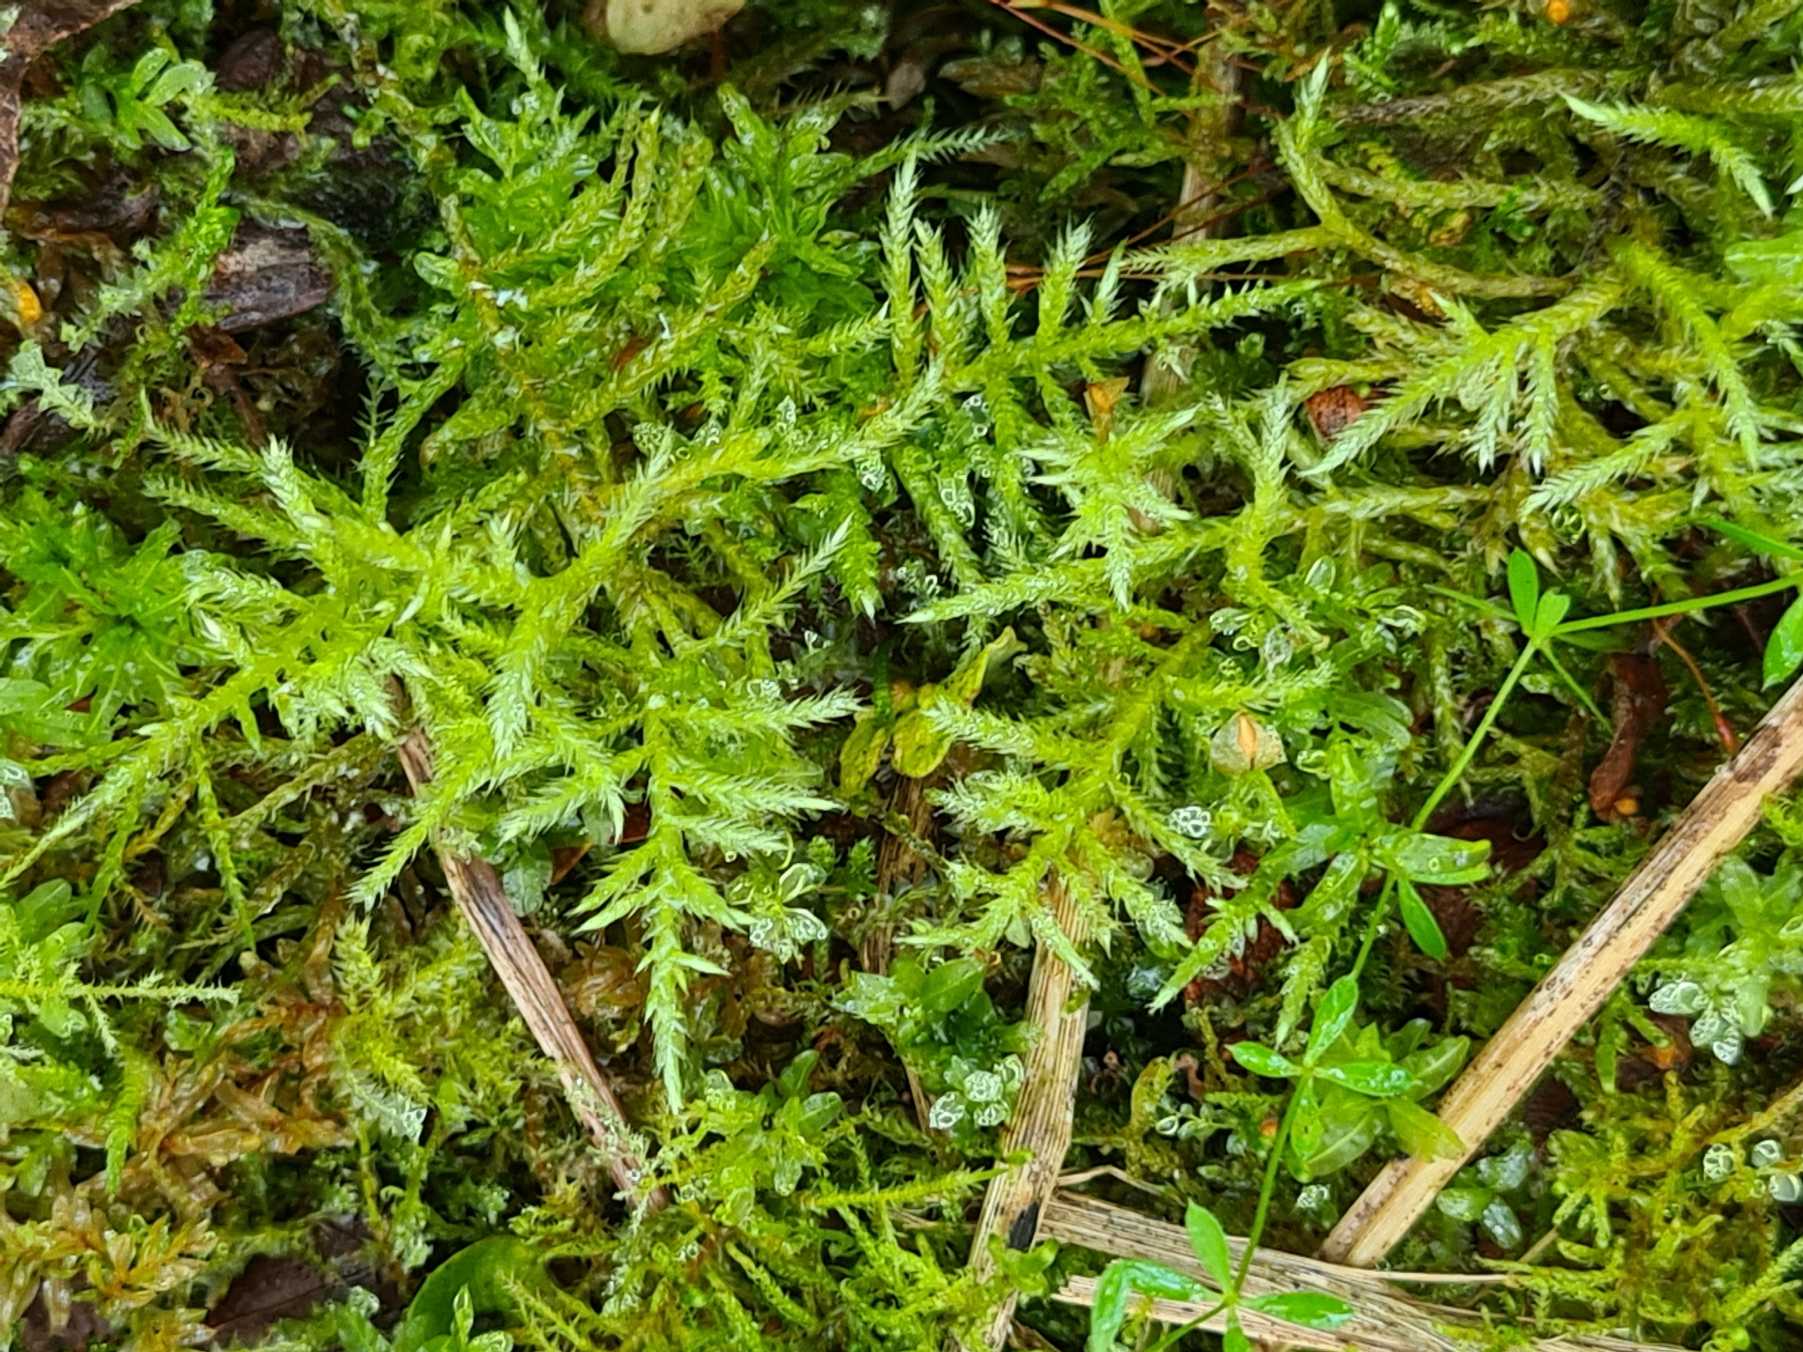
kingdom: Plantae
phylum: Bryophyta
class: Bryopsida
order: Hypnales
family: Brachytheciaceae
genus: Cirriphyllum
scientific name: Cirriphyllum piliferum
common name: Almindelig penselmos
